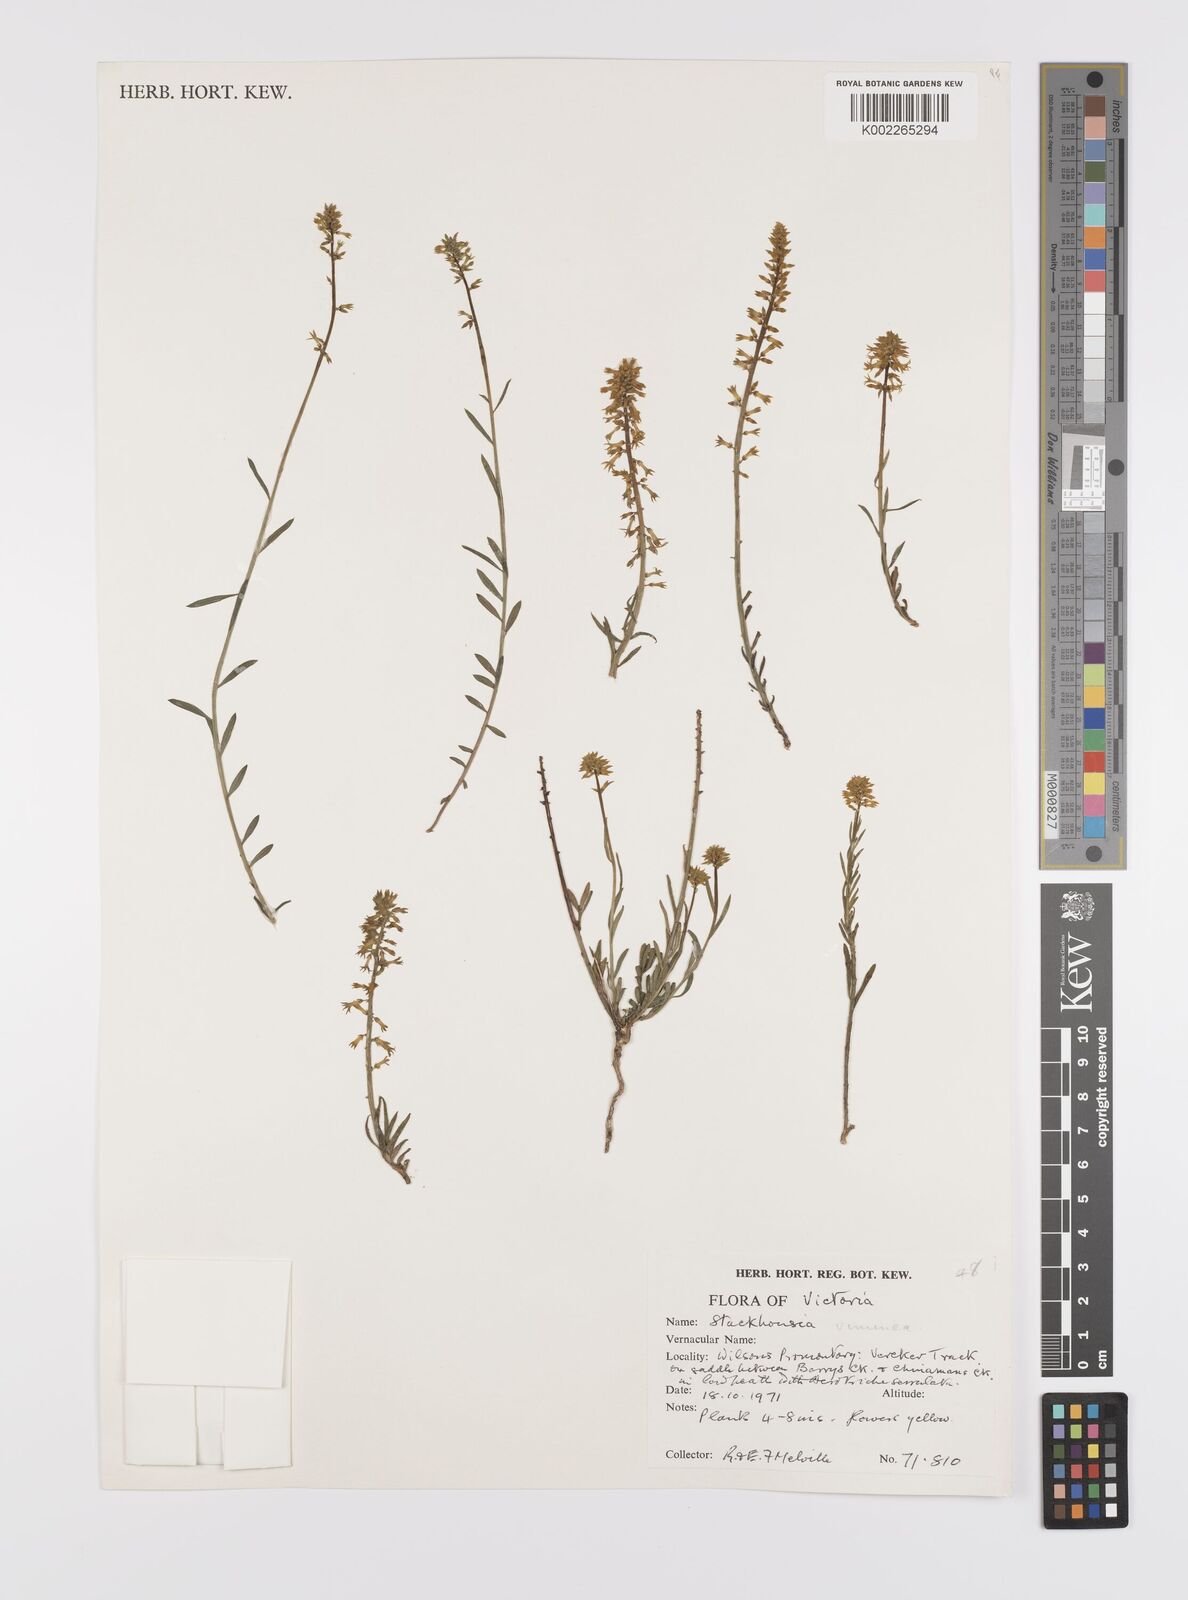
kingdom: Plantae
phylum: Tracheophyta
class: Magnoliopsida
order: Celastrales
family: Celastraceae
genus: Stackhousia
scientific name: Stackhousia viminea
